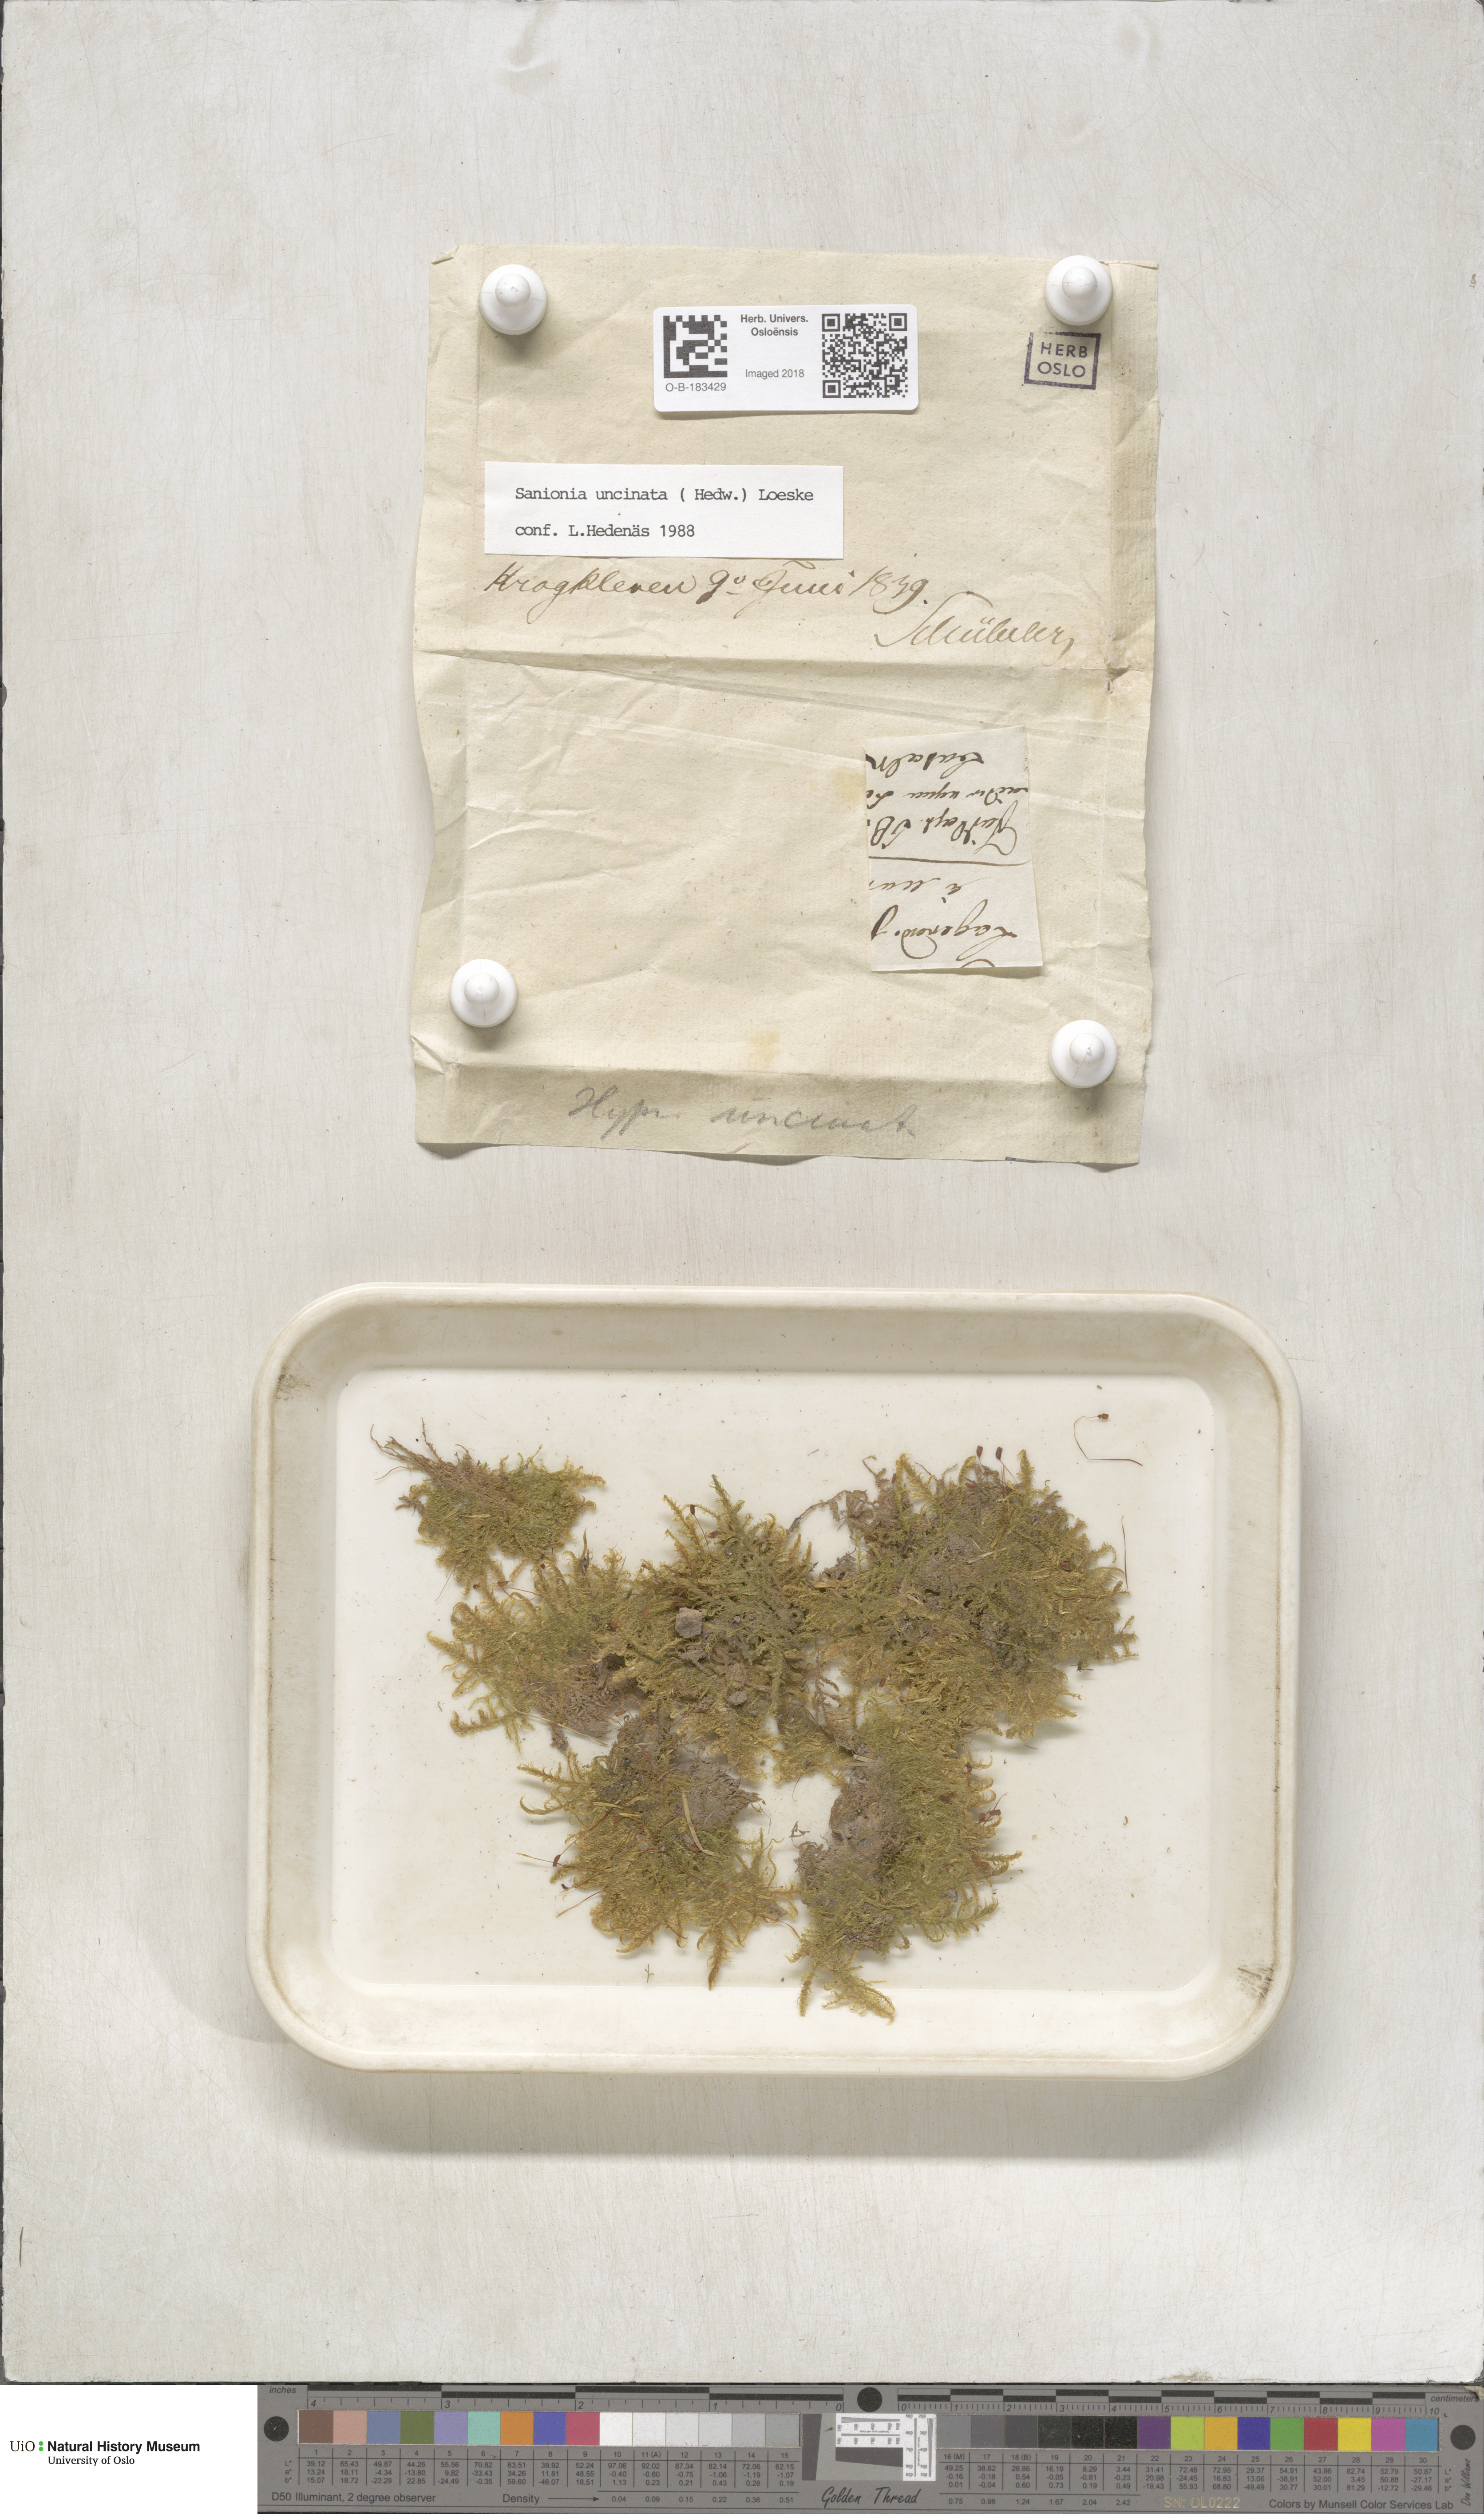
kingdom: Plantae
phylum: Bryophyta
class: Bryopsida
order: Hypnales
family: Scorpidiaceae
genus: Sanionia
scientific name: Sanionia uncinata
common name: Sickle moss
